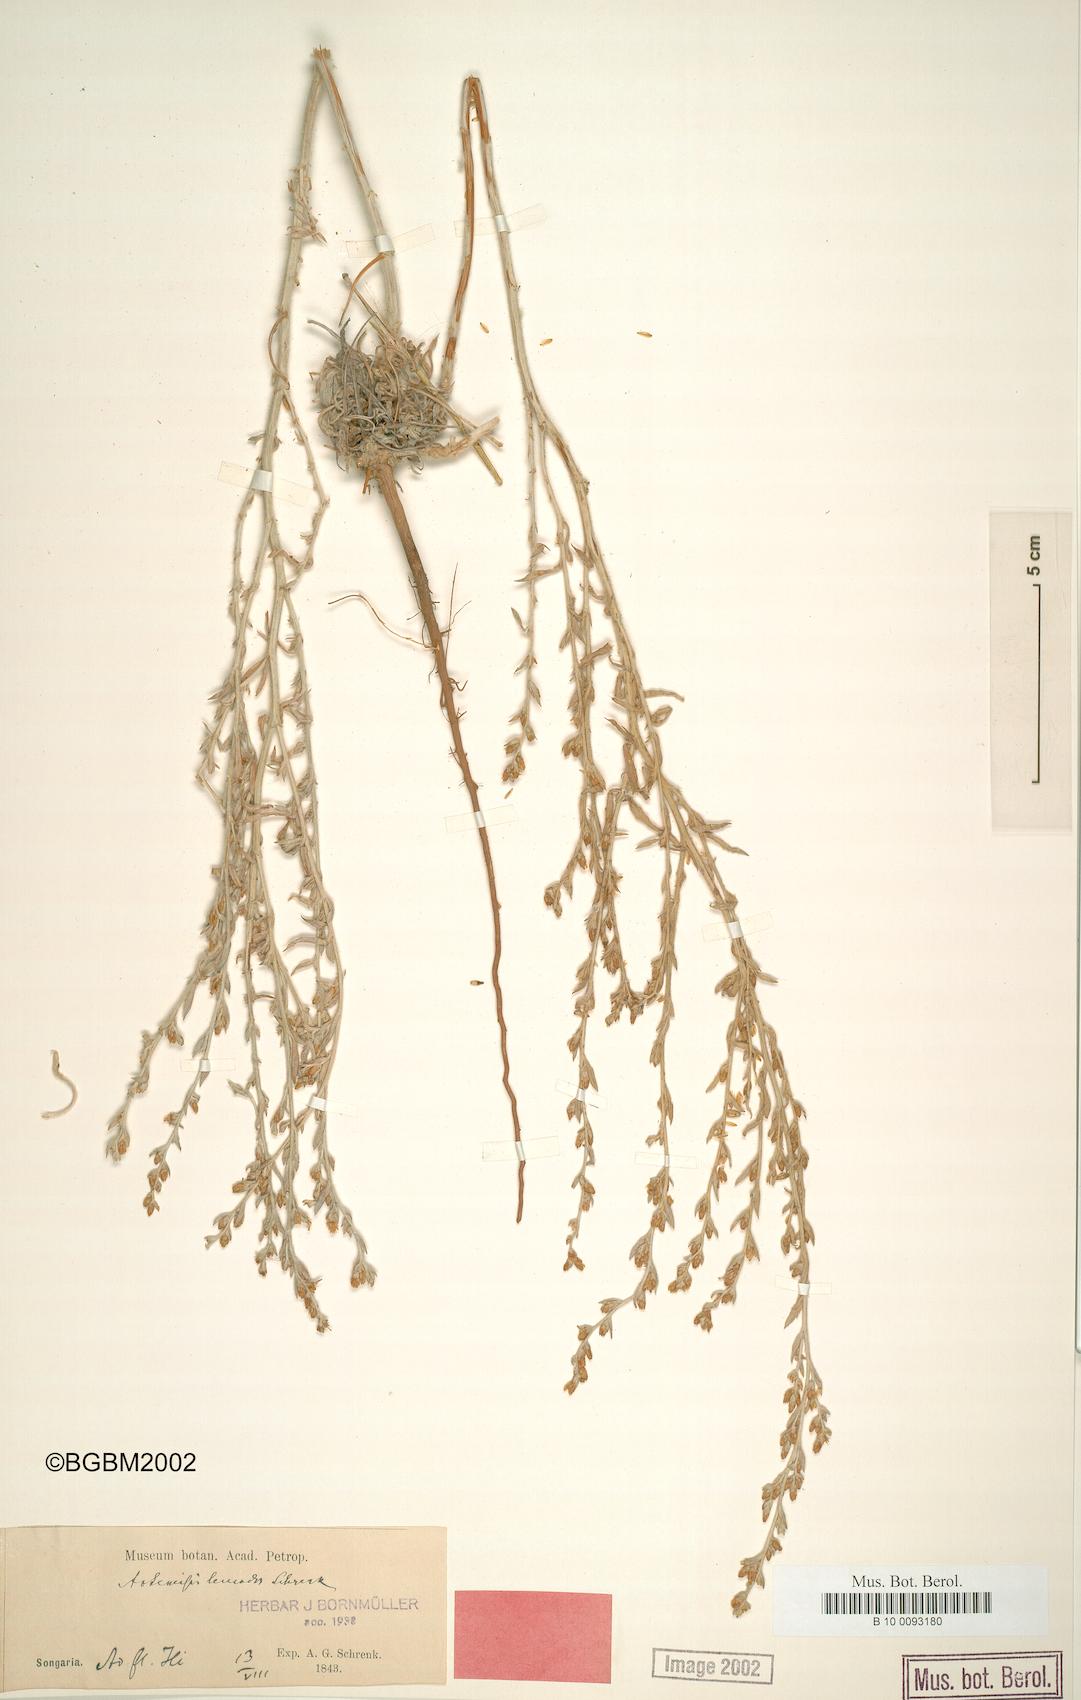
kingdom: Plantae
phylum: Tracheophyta
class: Magnoliopsida
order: Asterales
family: Asteraceae
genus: Artemisia
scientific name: Artemisia leucodes
